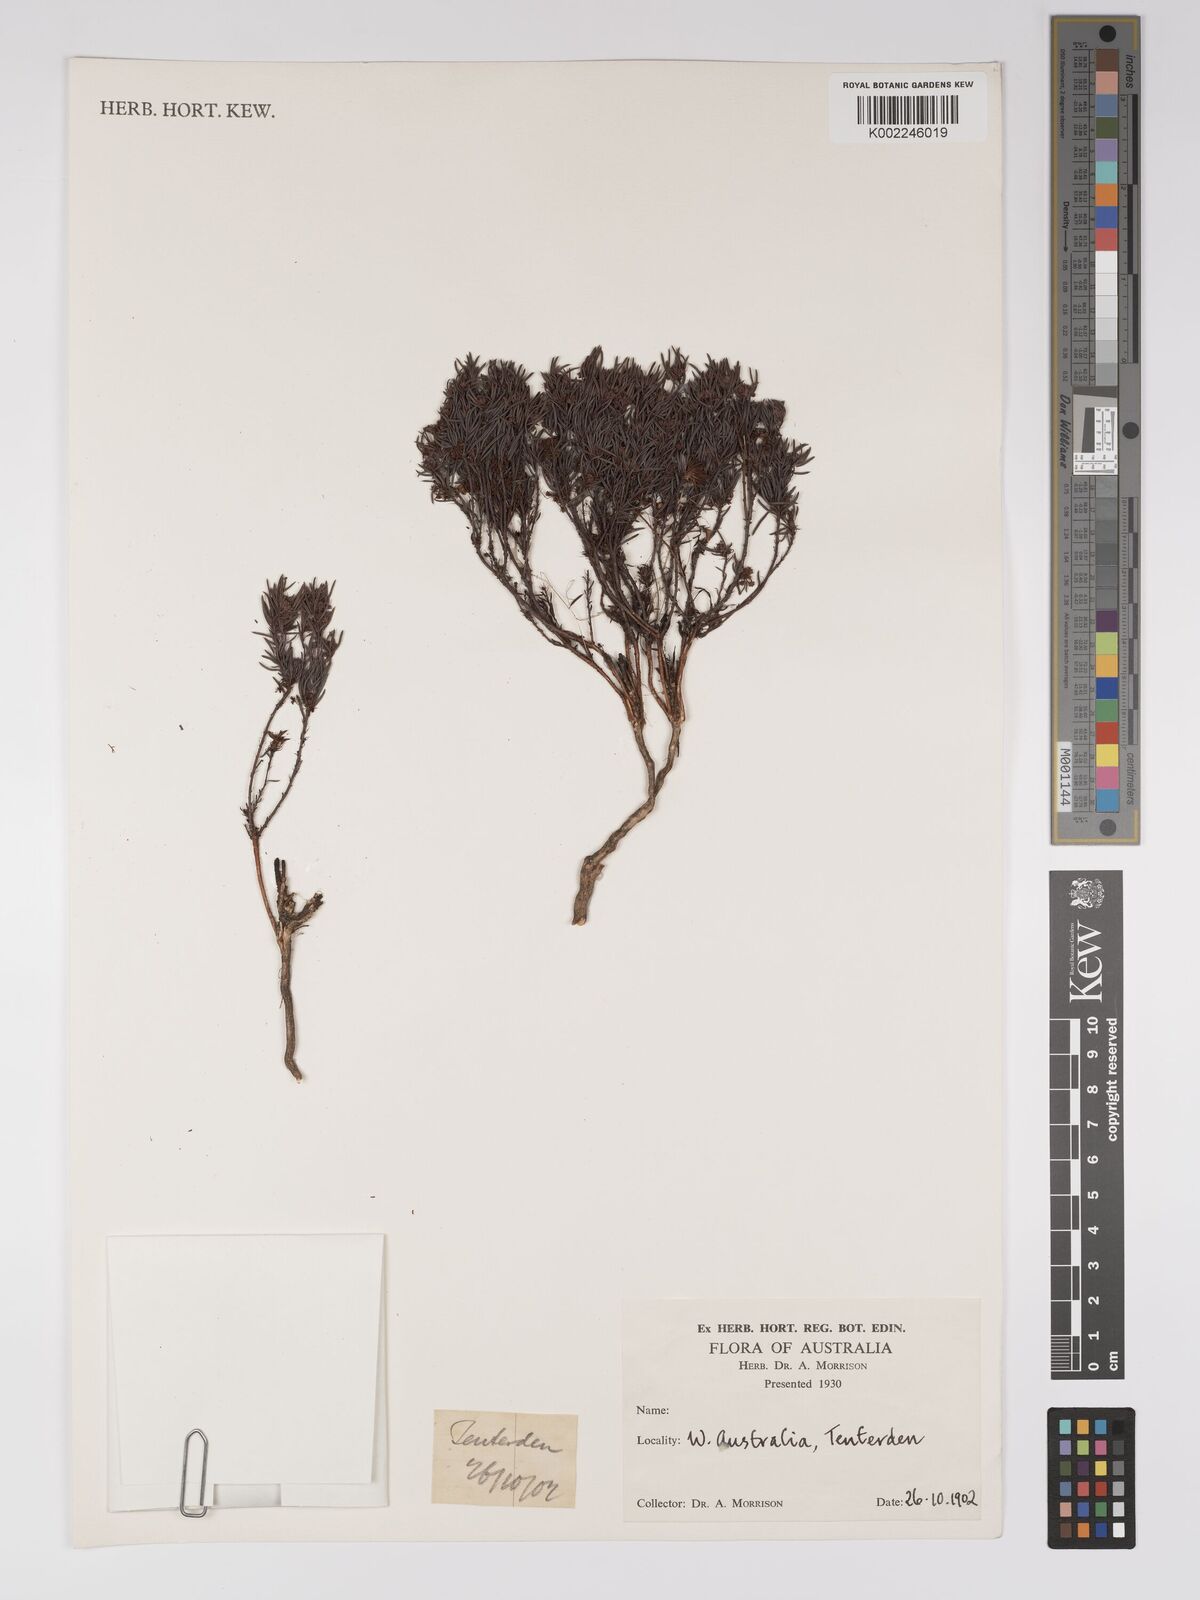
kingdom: Plantae
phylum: Tracheophyta
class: Magnoliopsida
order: Malpighiales
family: Euphorbiaceae
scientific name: Euphorbiaceae
